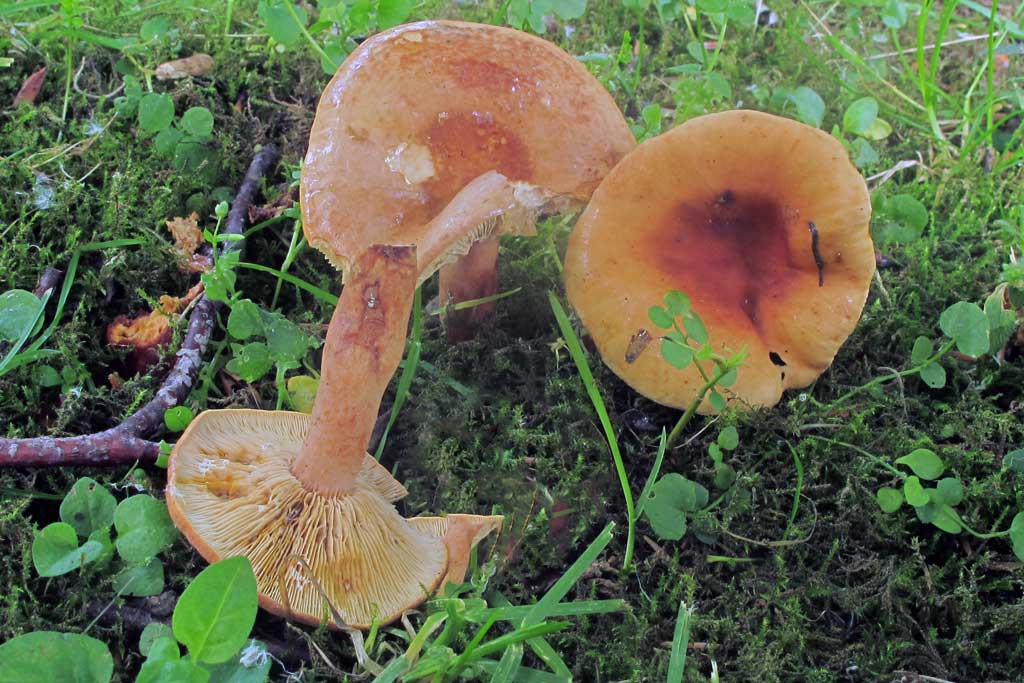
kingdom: Fungi
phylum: Basidiomycota
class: Agaricomycetes
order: Russulales
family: Russulaceae
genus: Lactarius
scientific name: Lactarius rubrocinctus
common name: halsbånd-mælkehat
